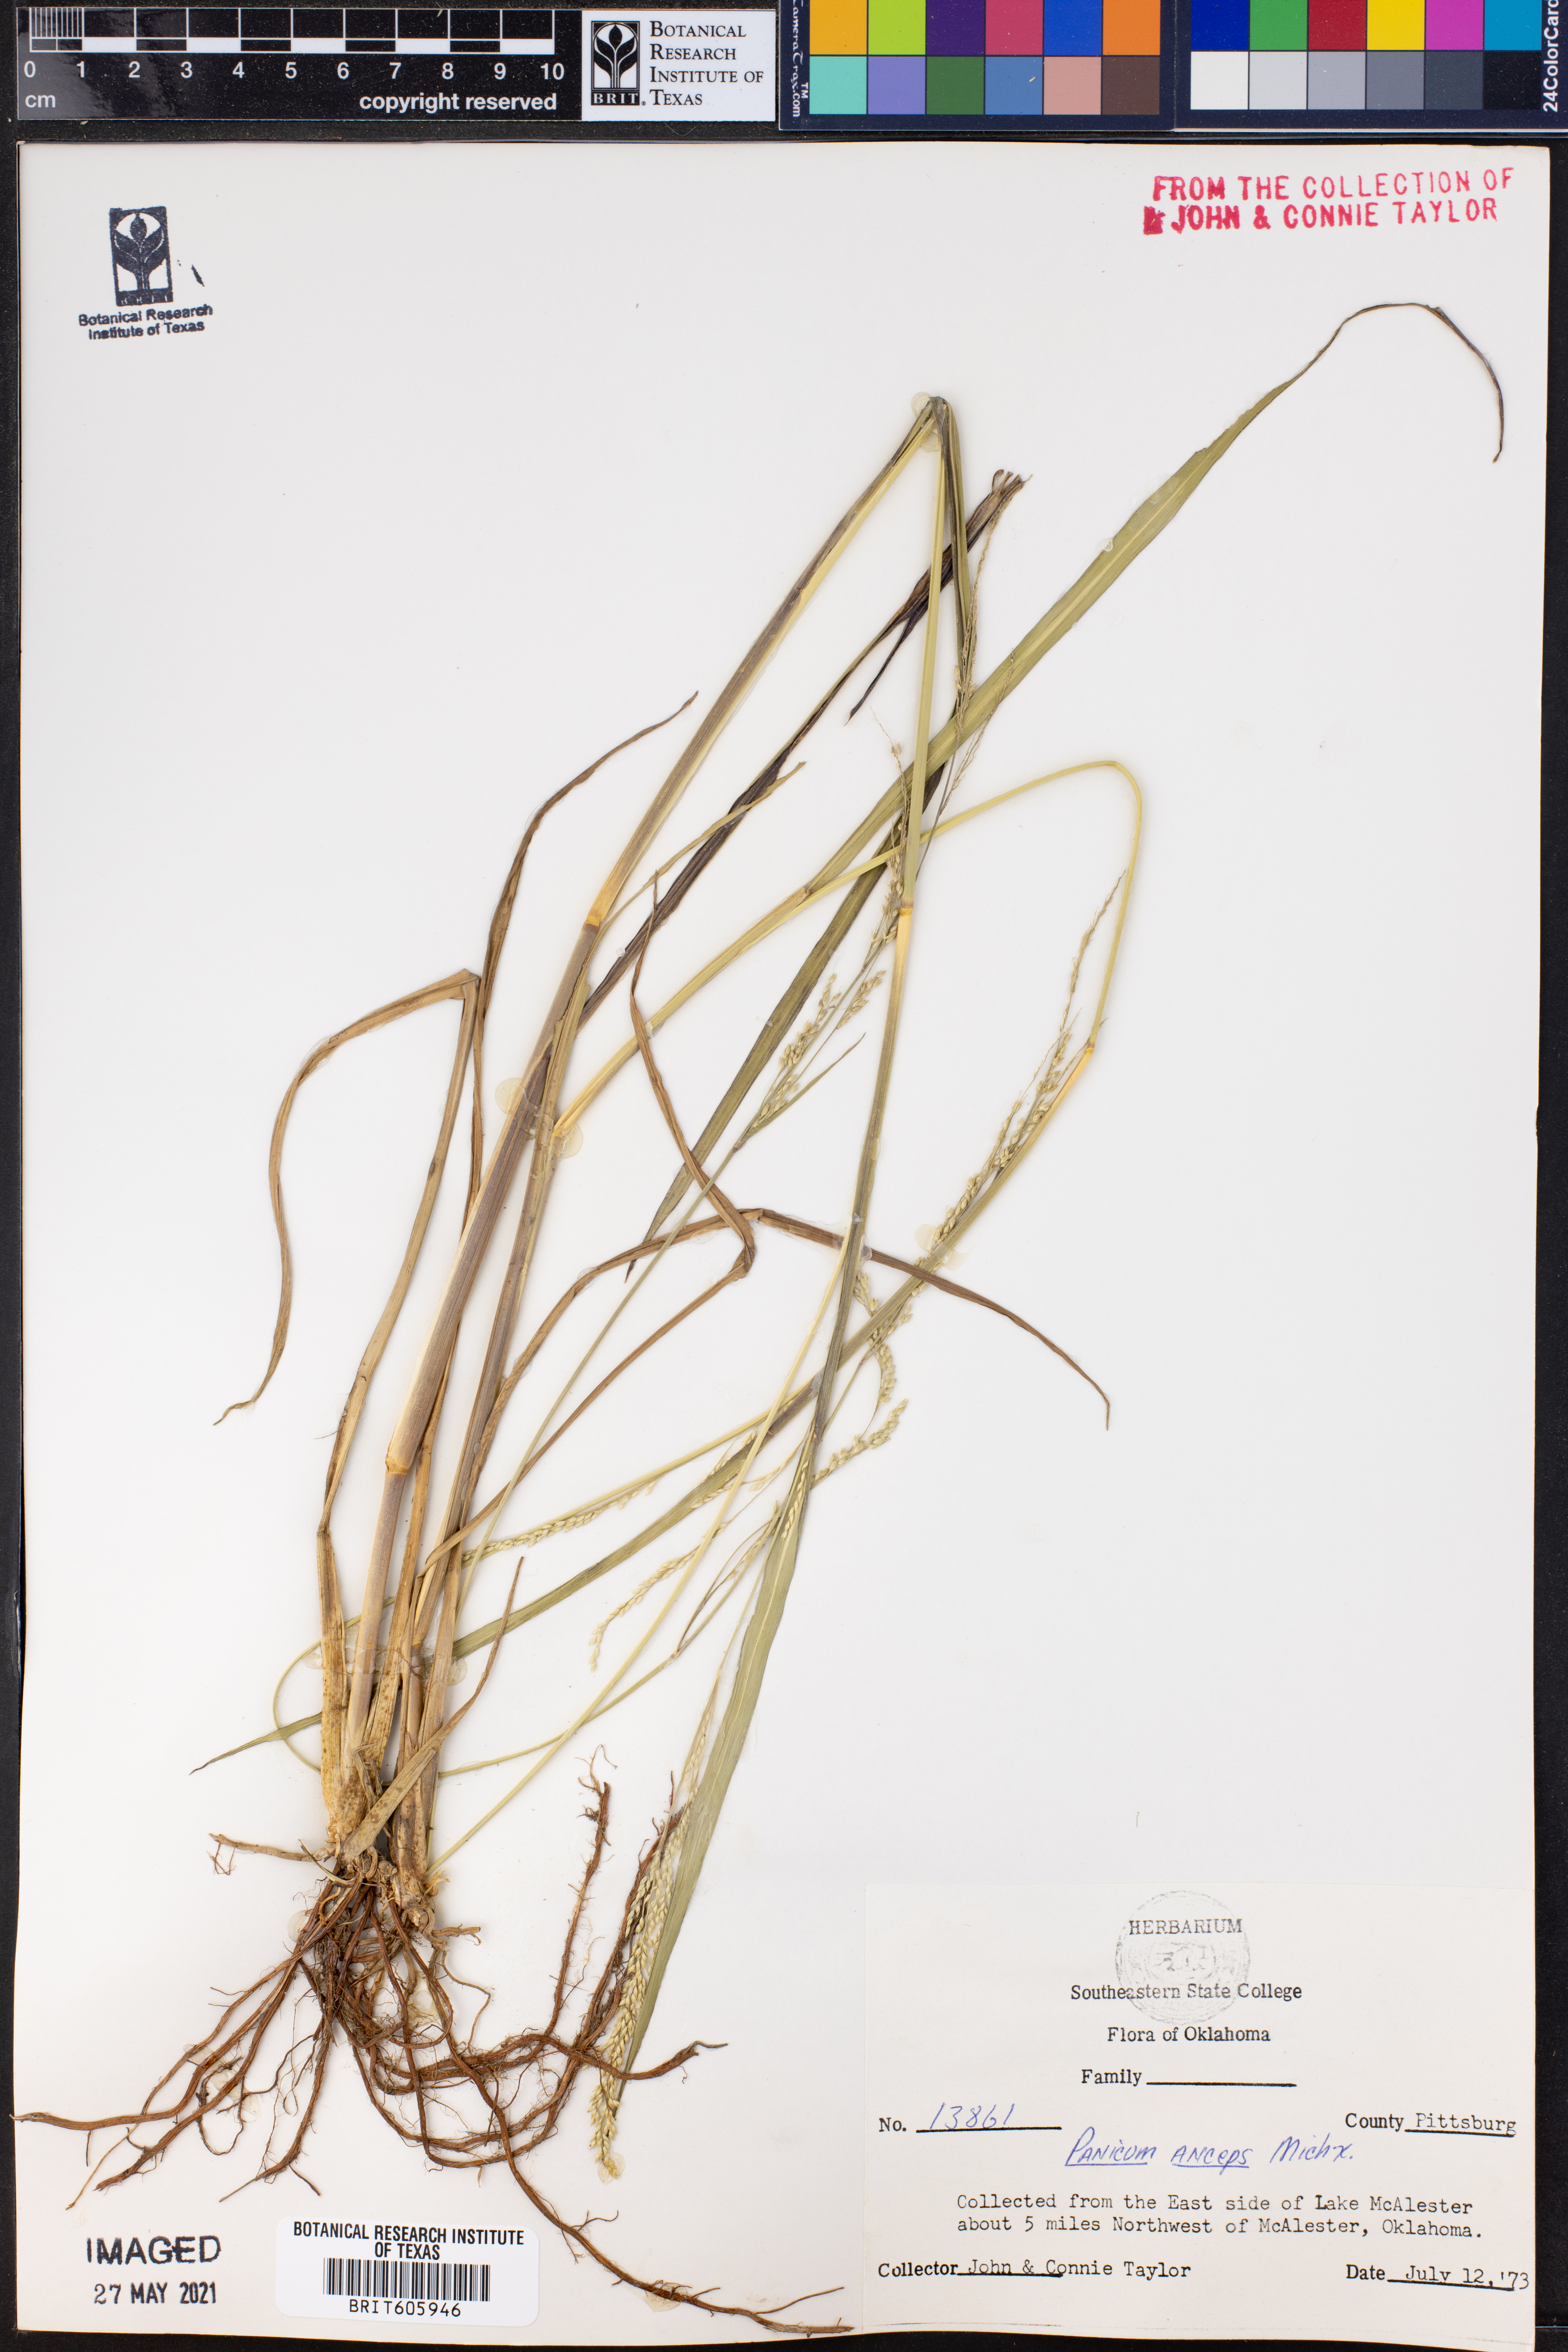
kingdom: Plantae
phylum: Tracheophyta
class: Liliopsida
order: Poales
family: Poaceae
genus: Coleataenia
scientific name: Coleataenia anceps
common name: Beaked panic grass
